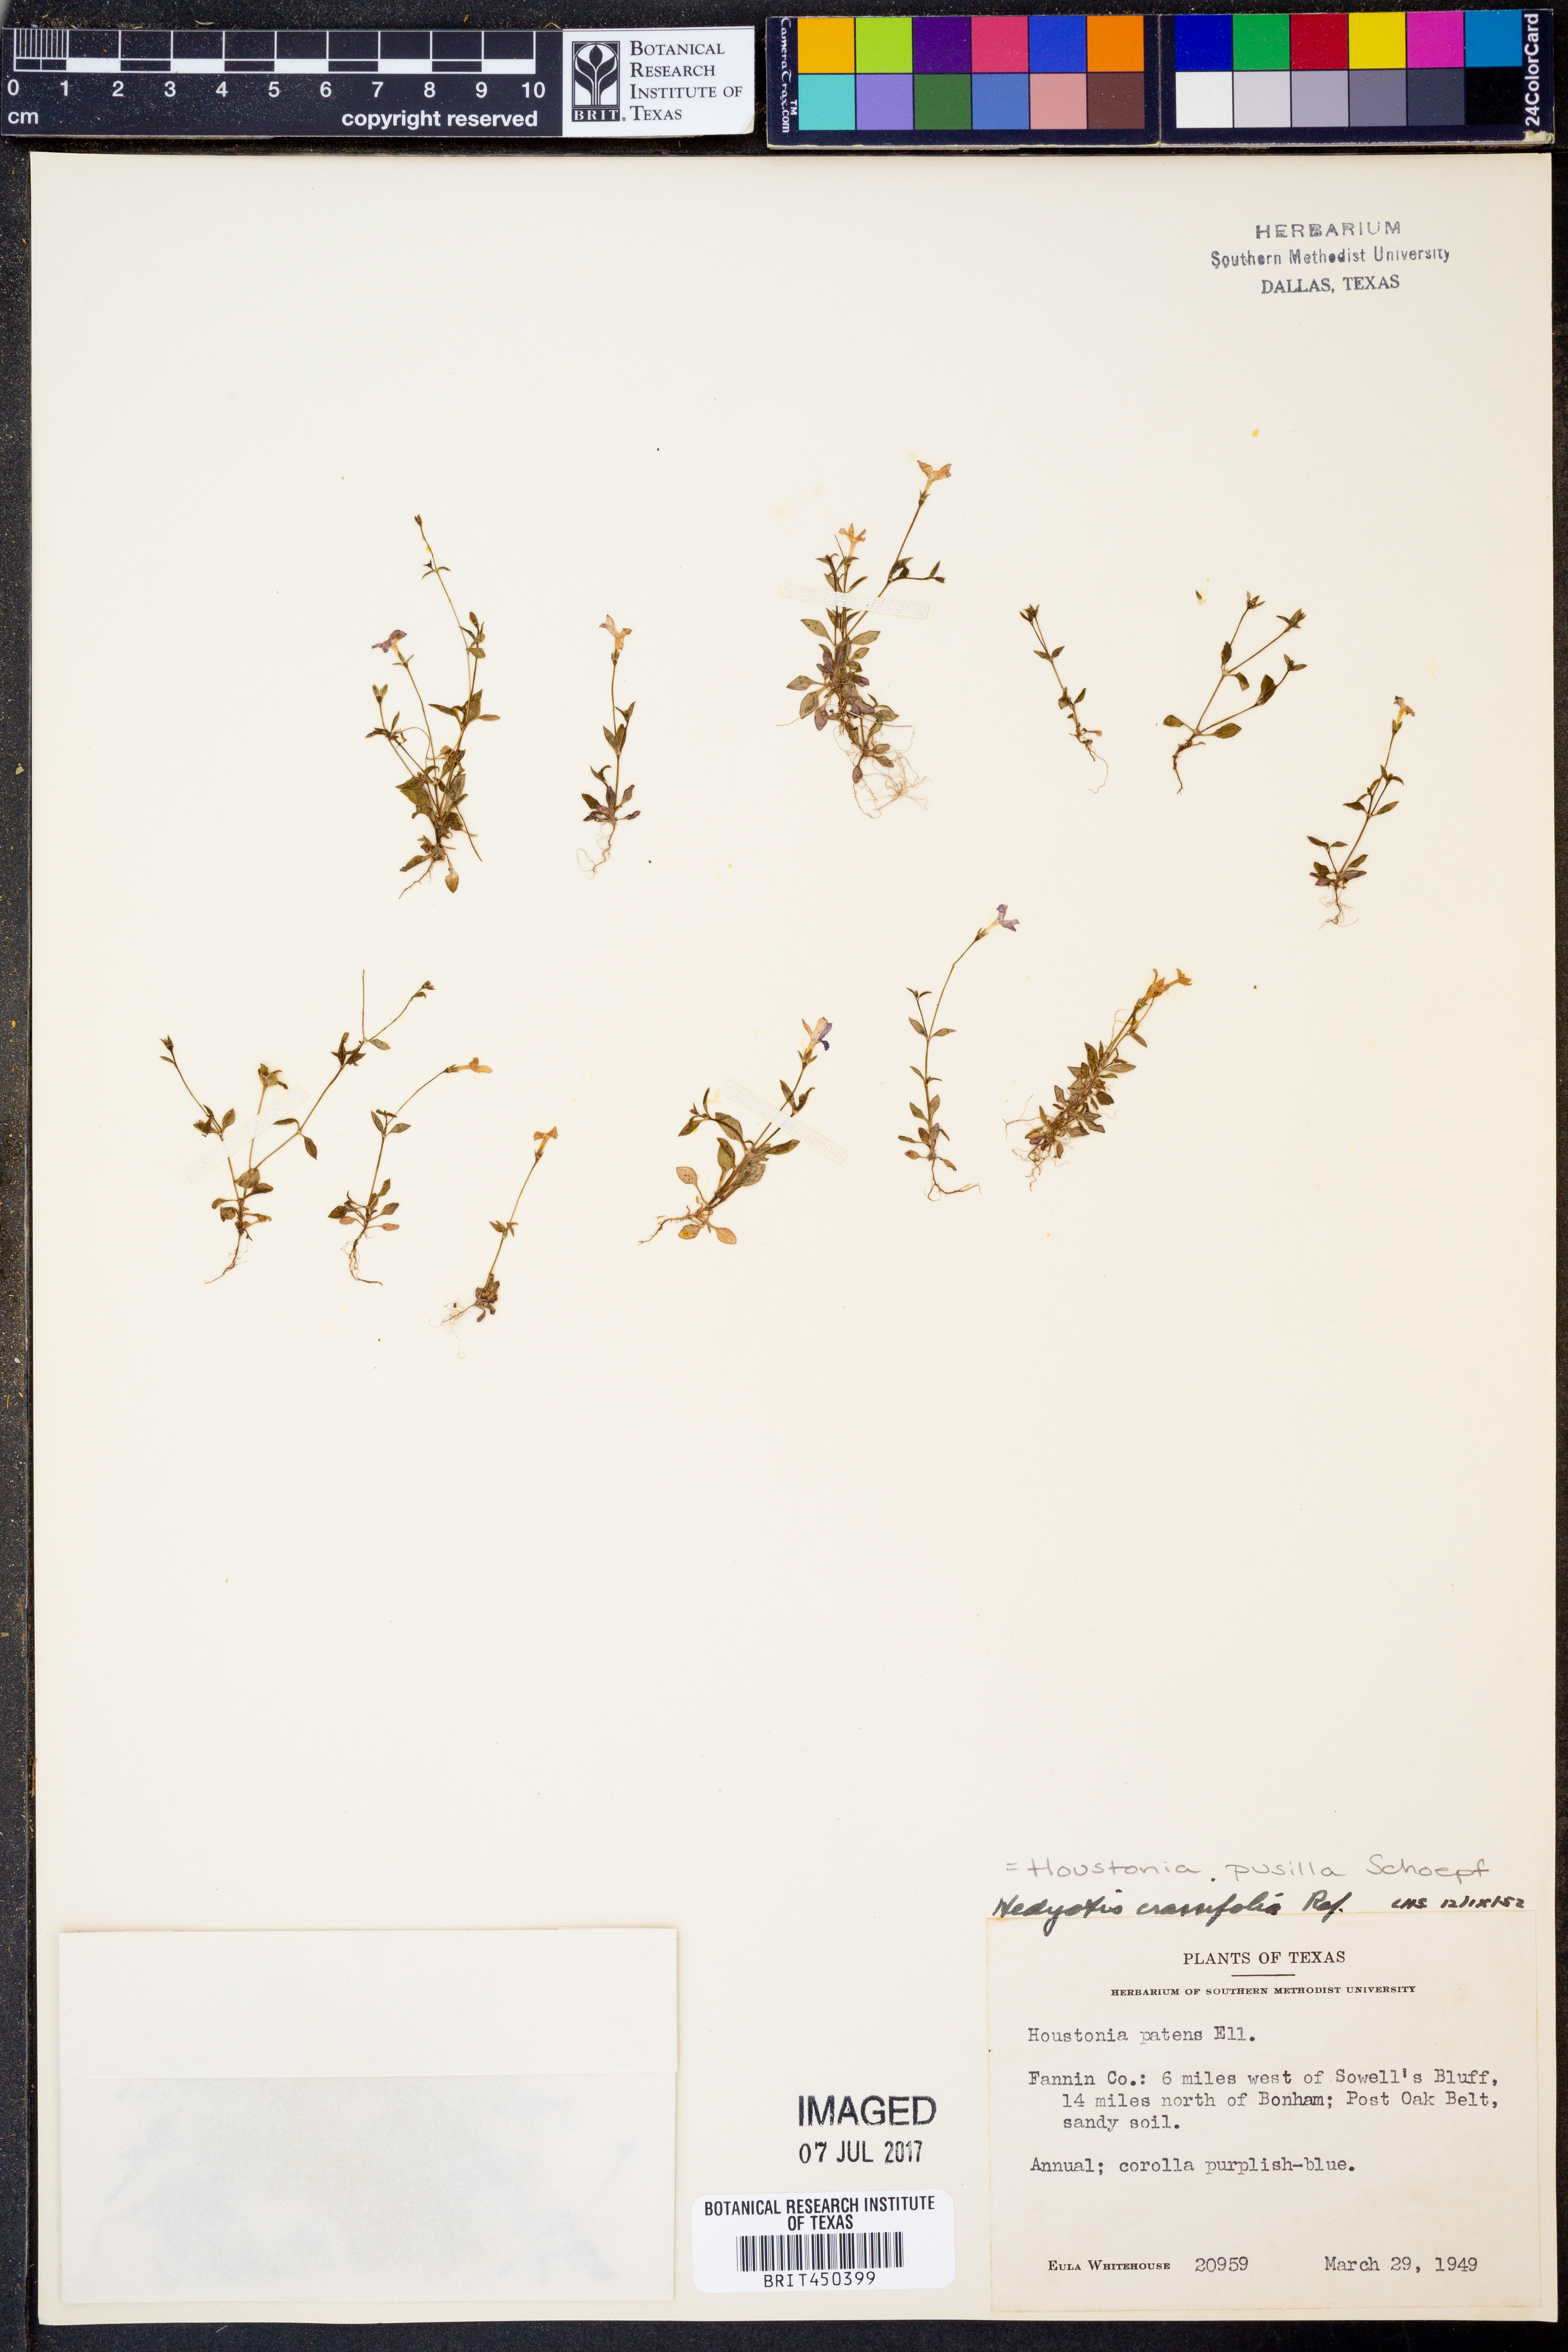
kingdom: Plantae
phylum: Tracheophyta
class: Magnoliopsida
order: Gentianales
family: Rubiaceae
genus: Houstonia
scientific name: Houstonia pusilla
